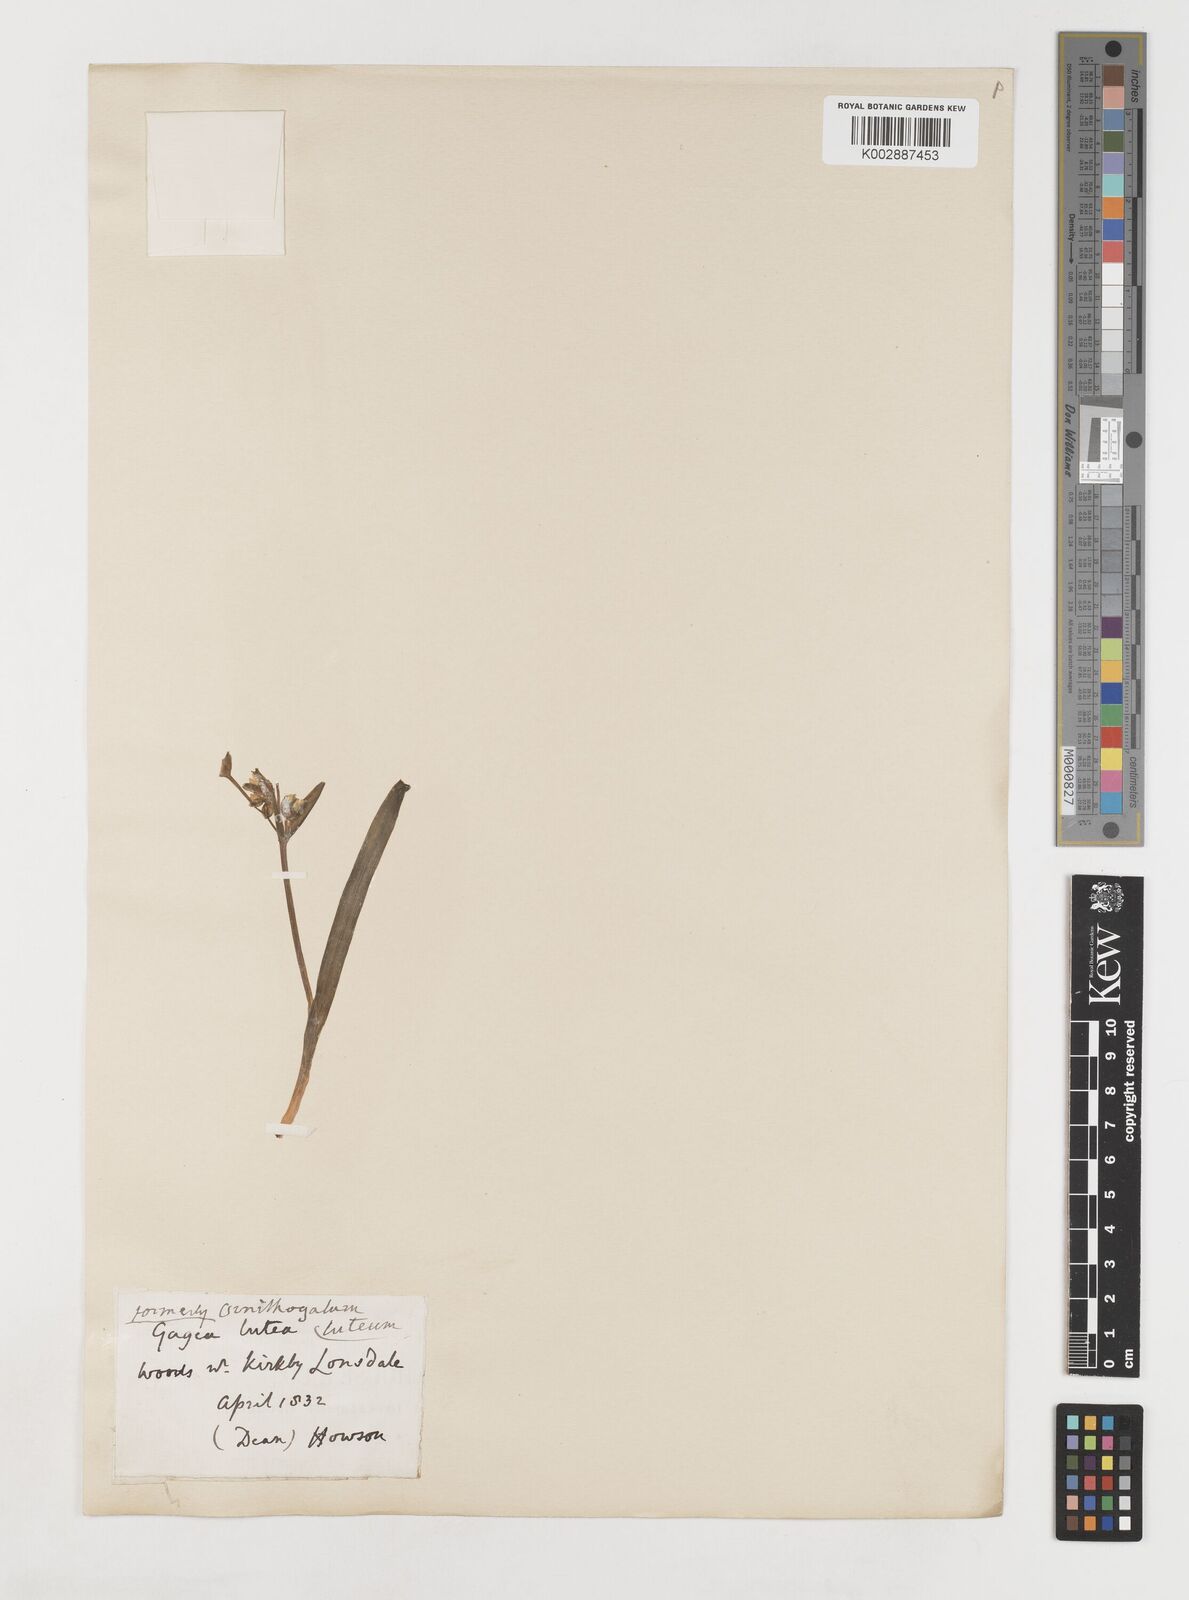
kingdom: Plantae
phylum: Tracheophyta
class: Liliopsida
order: Liliales
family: Liliaceae
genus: Gagea
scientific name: Gagea lutea
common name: Yellow star-of-bethlehem
